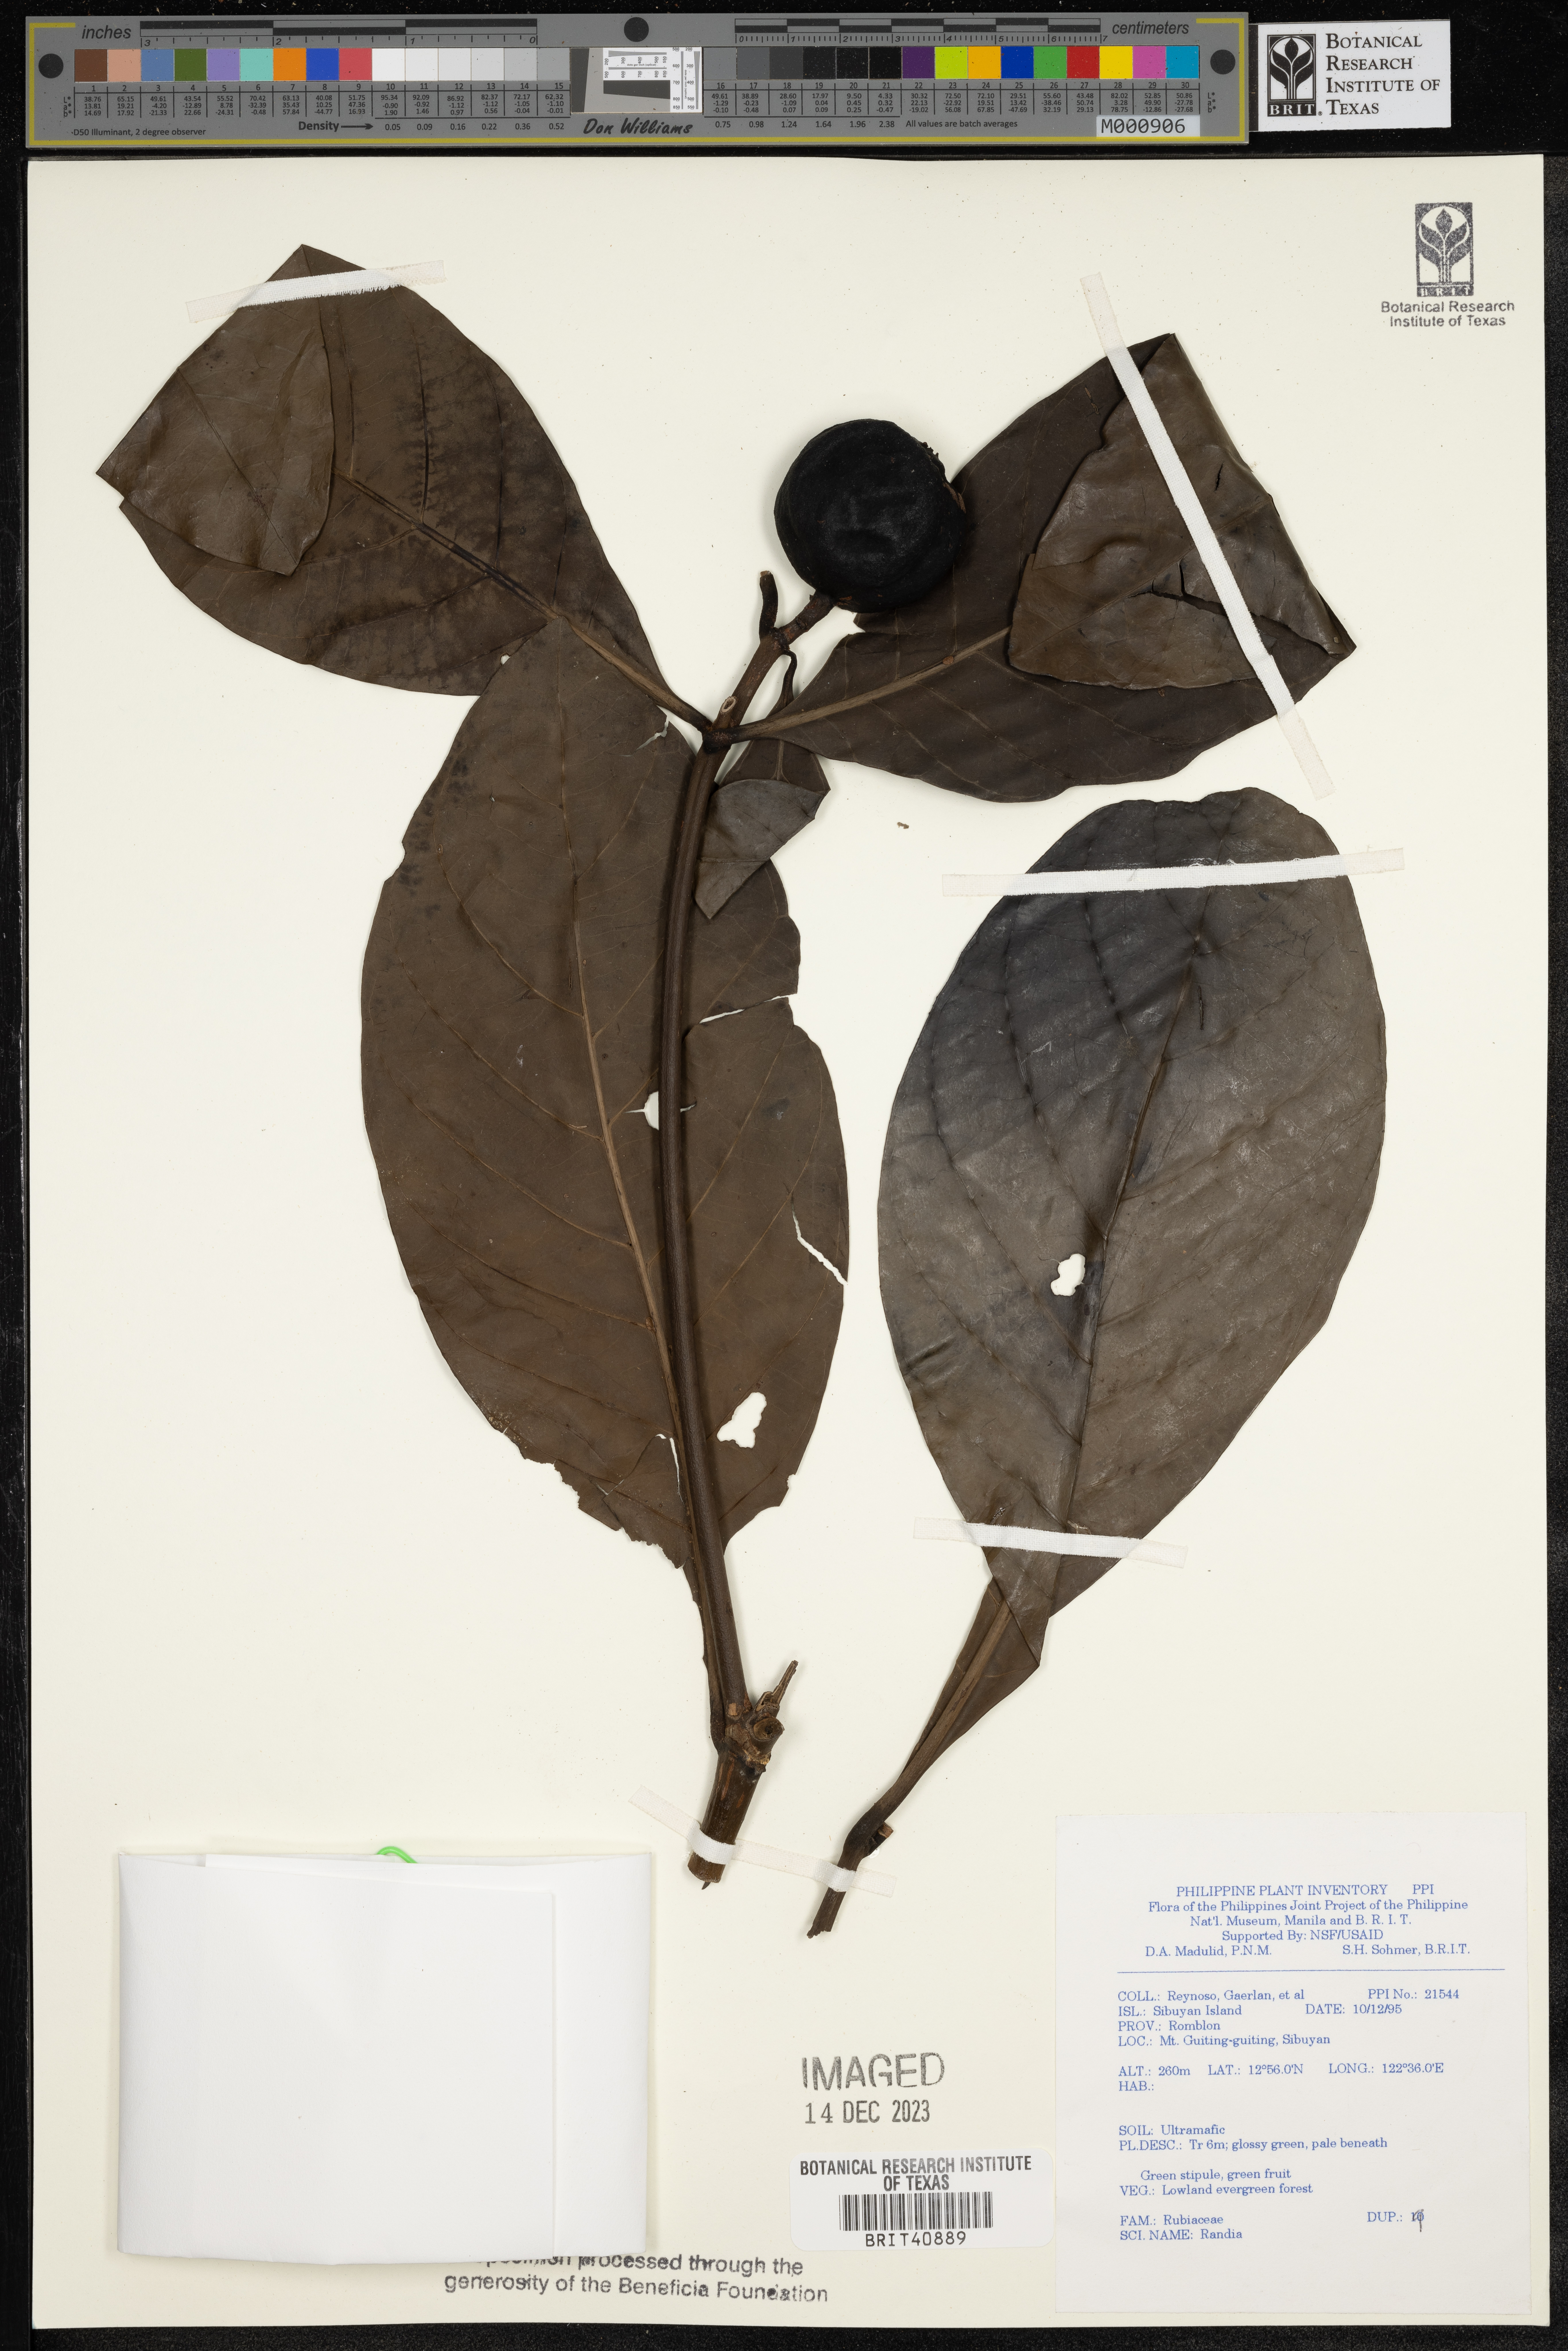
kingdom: Plantae
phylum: Tracheophyta
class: Magnoliopsida
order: Gentianales
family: Rubiaceae
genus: Randia
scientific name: Randia
